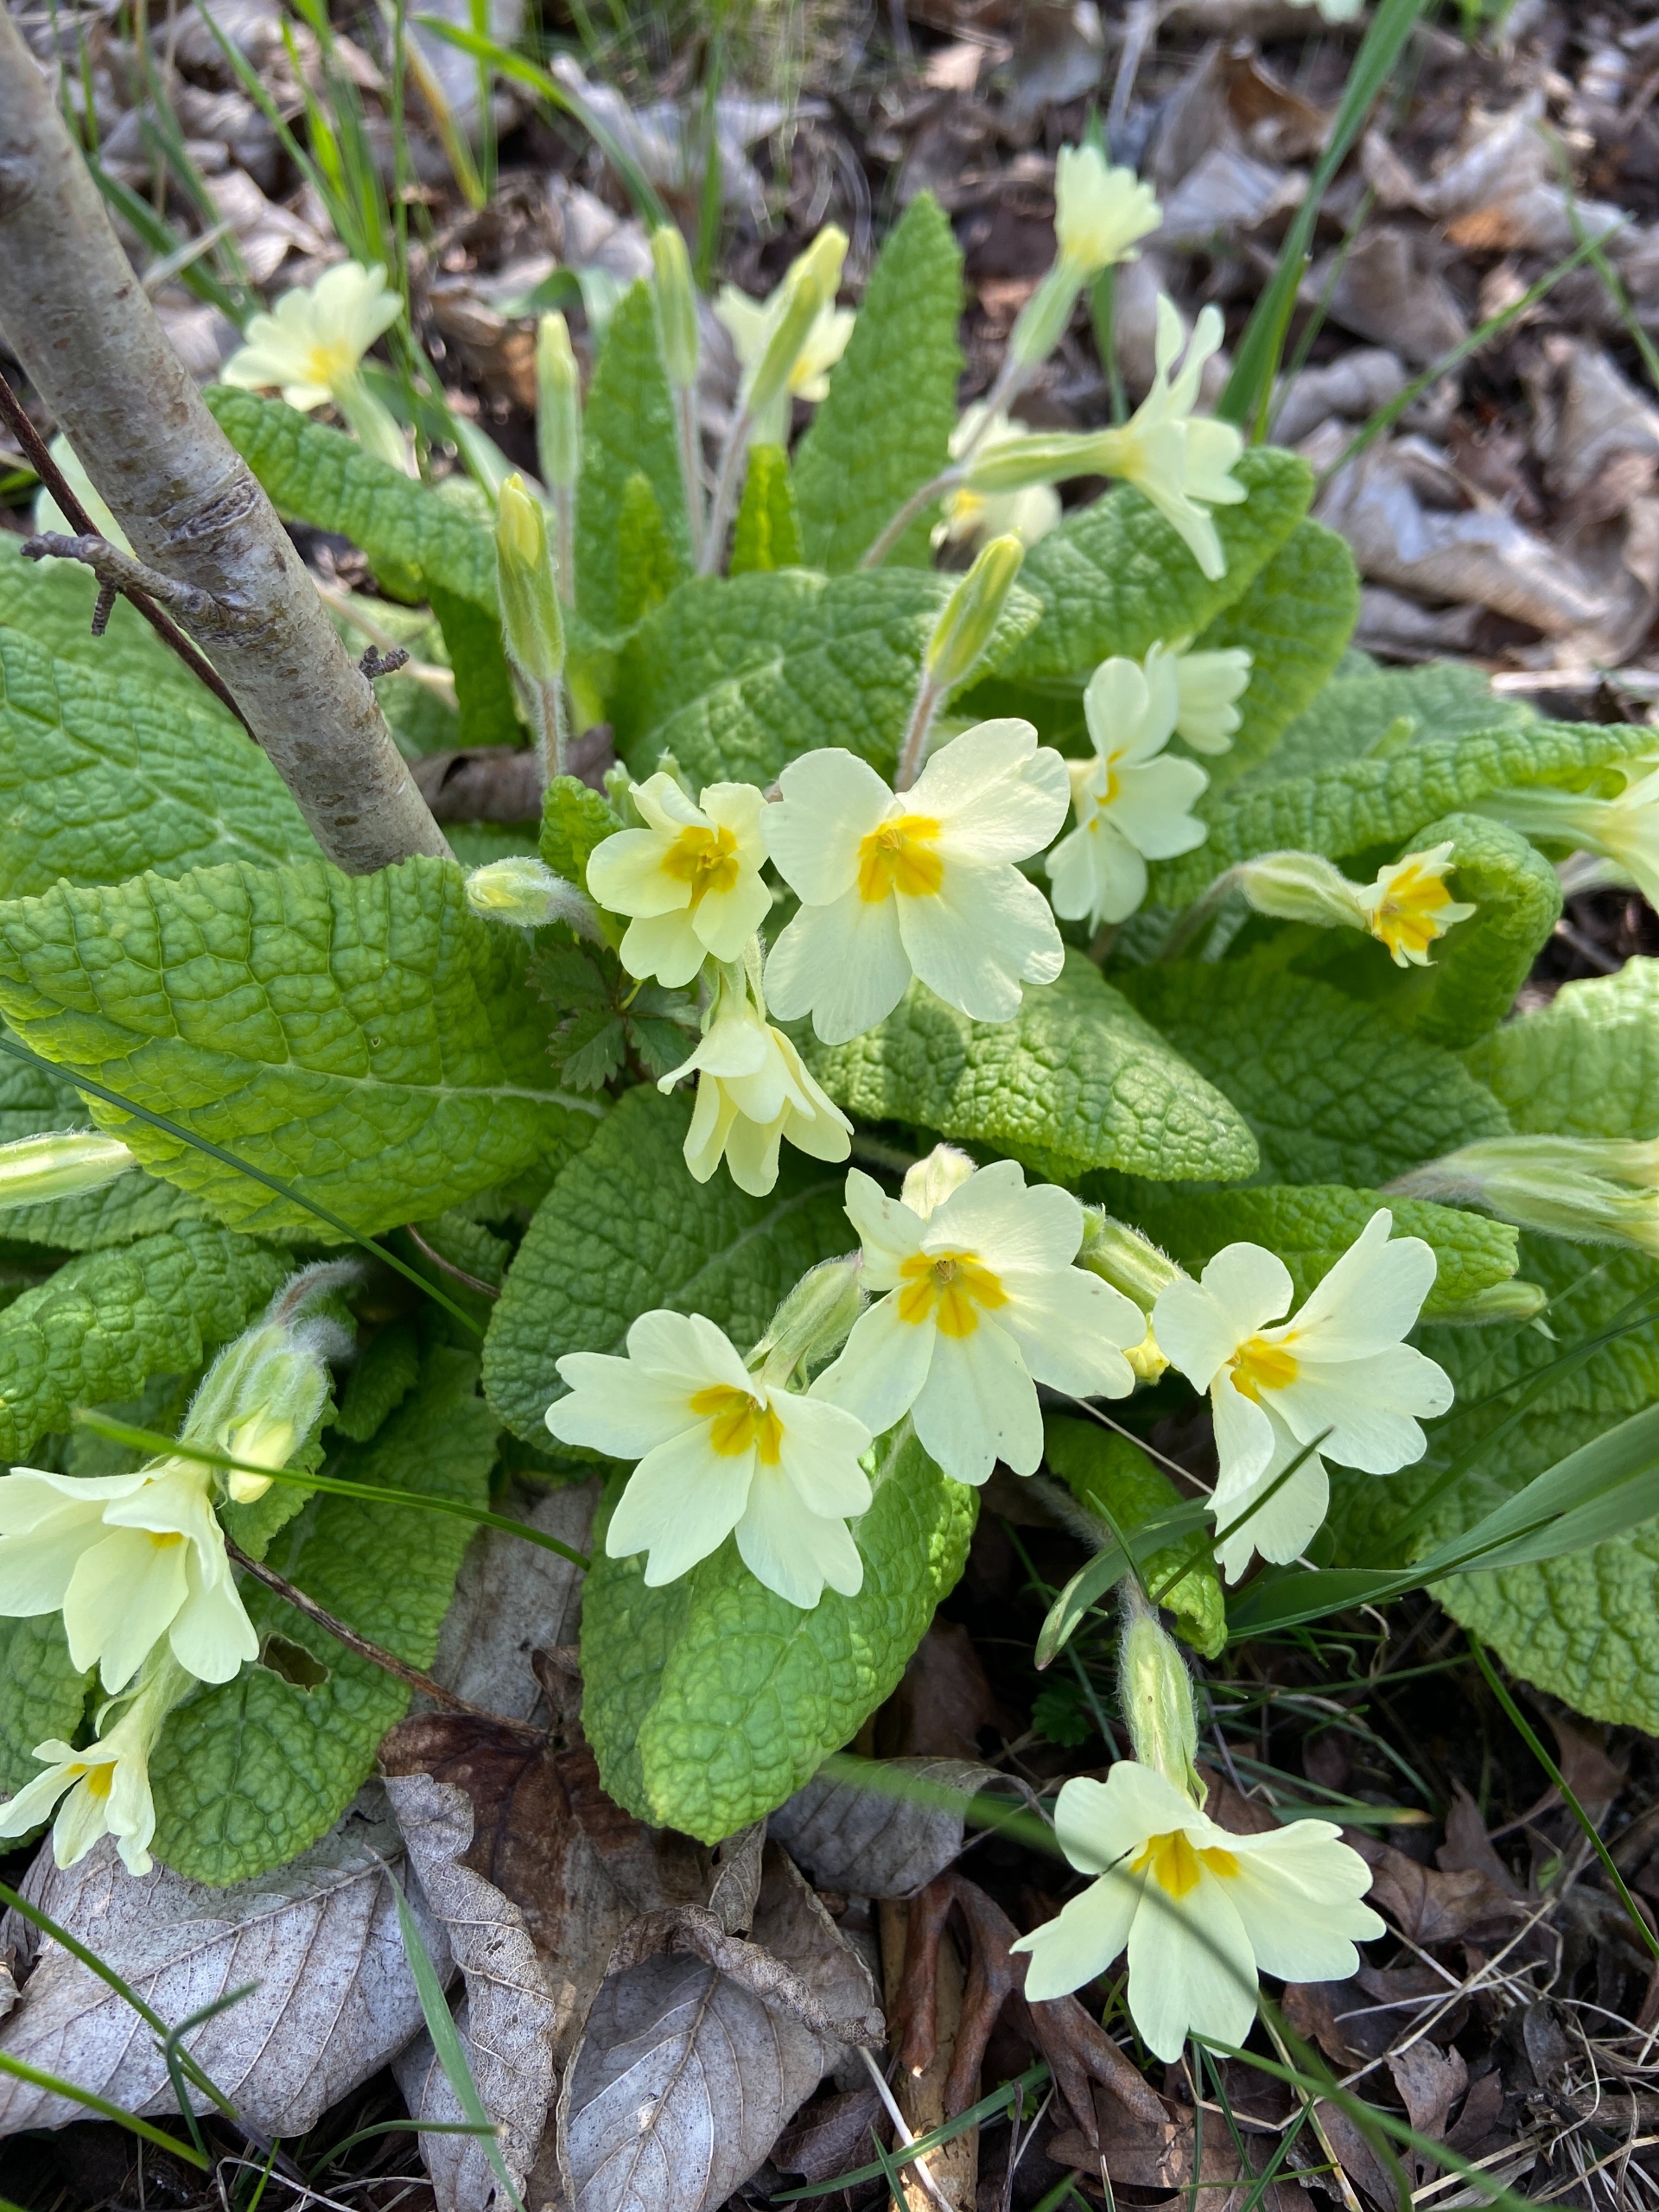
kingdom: Plantae
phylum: Tracheophyta
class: Magnoliopsida
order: Ericales
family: Primulaceae
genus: Primula
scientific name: Primula vulgaris
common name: Storblomstret kodriver
